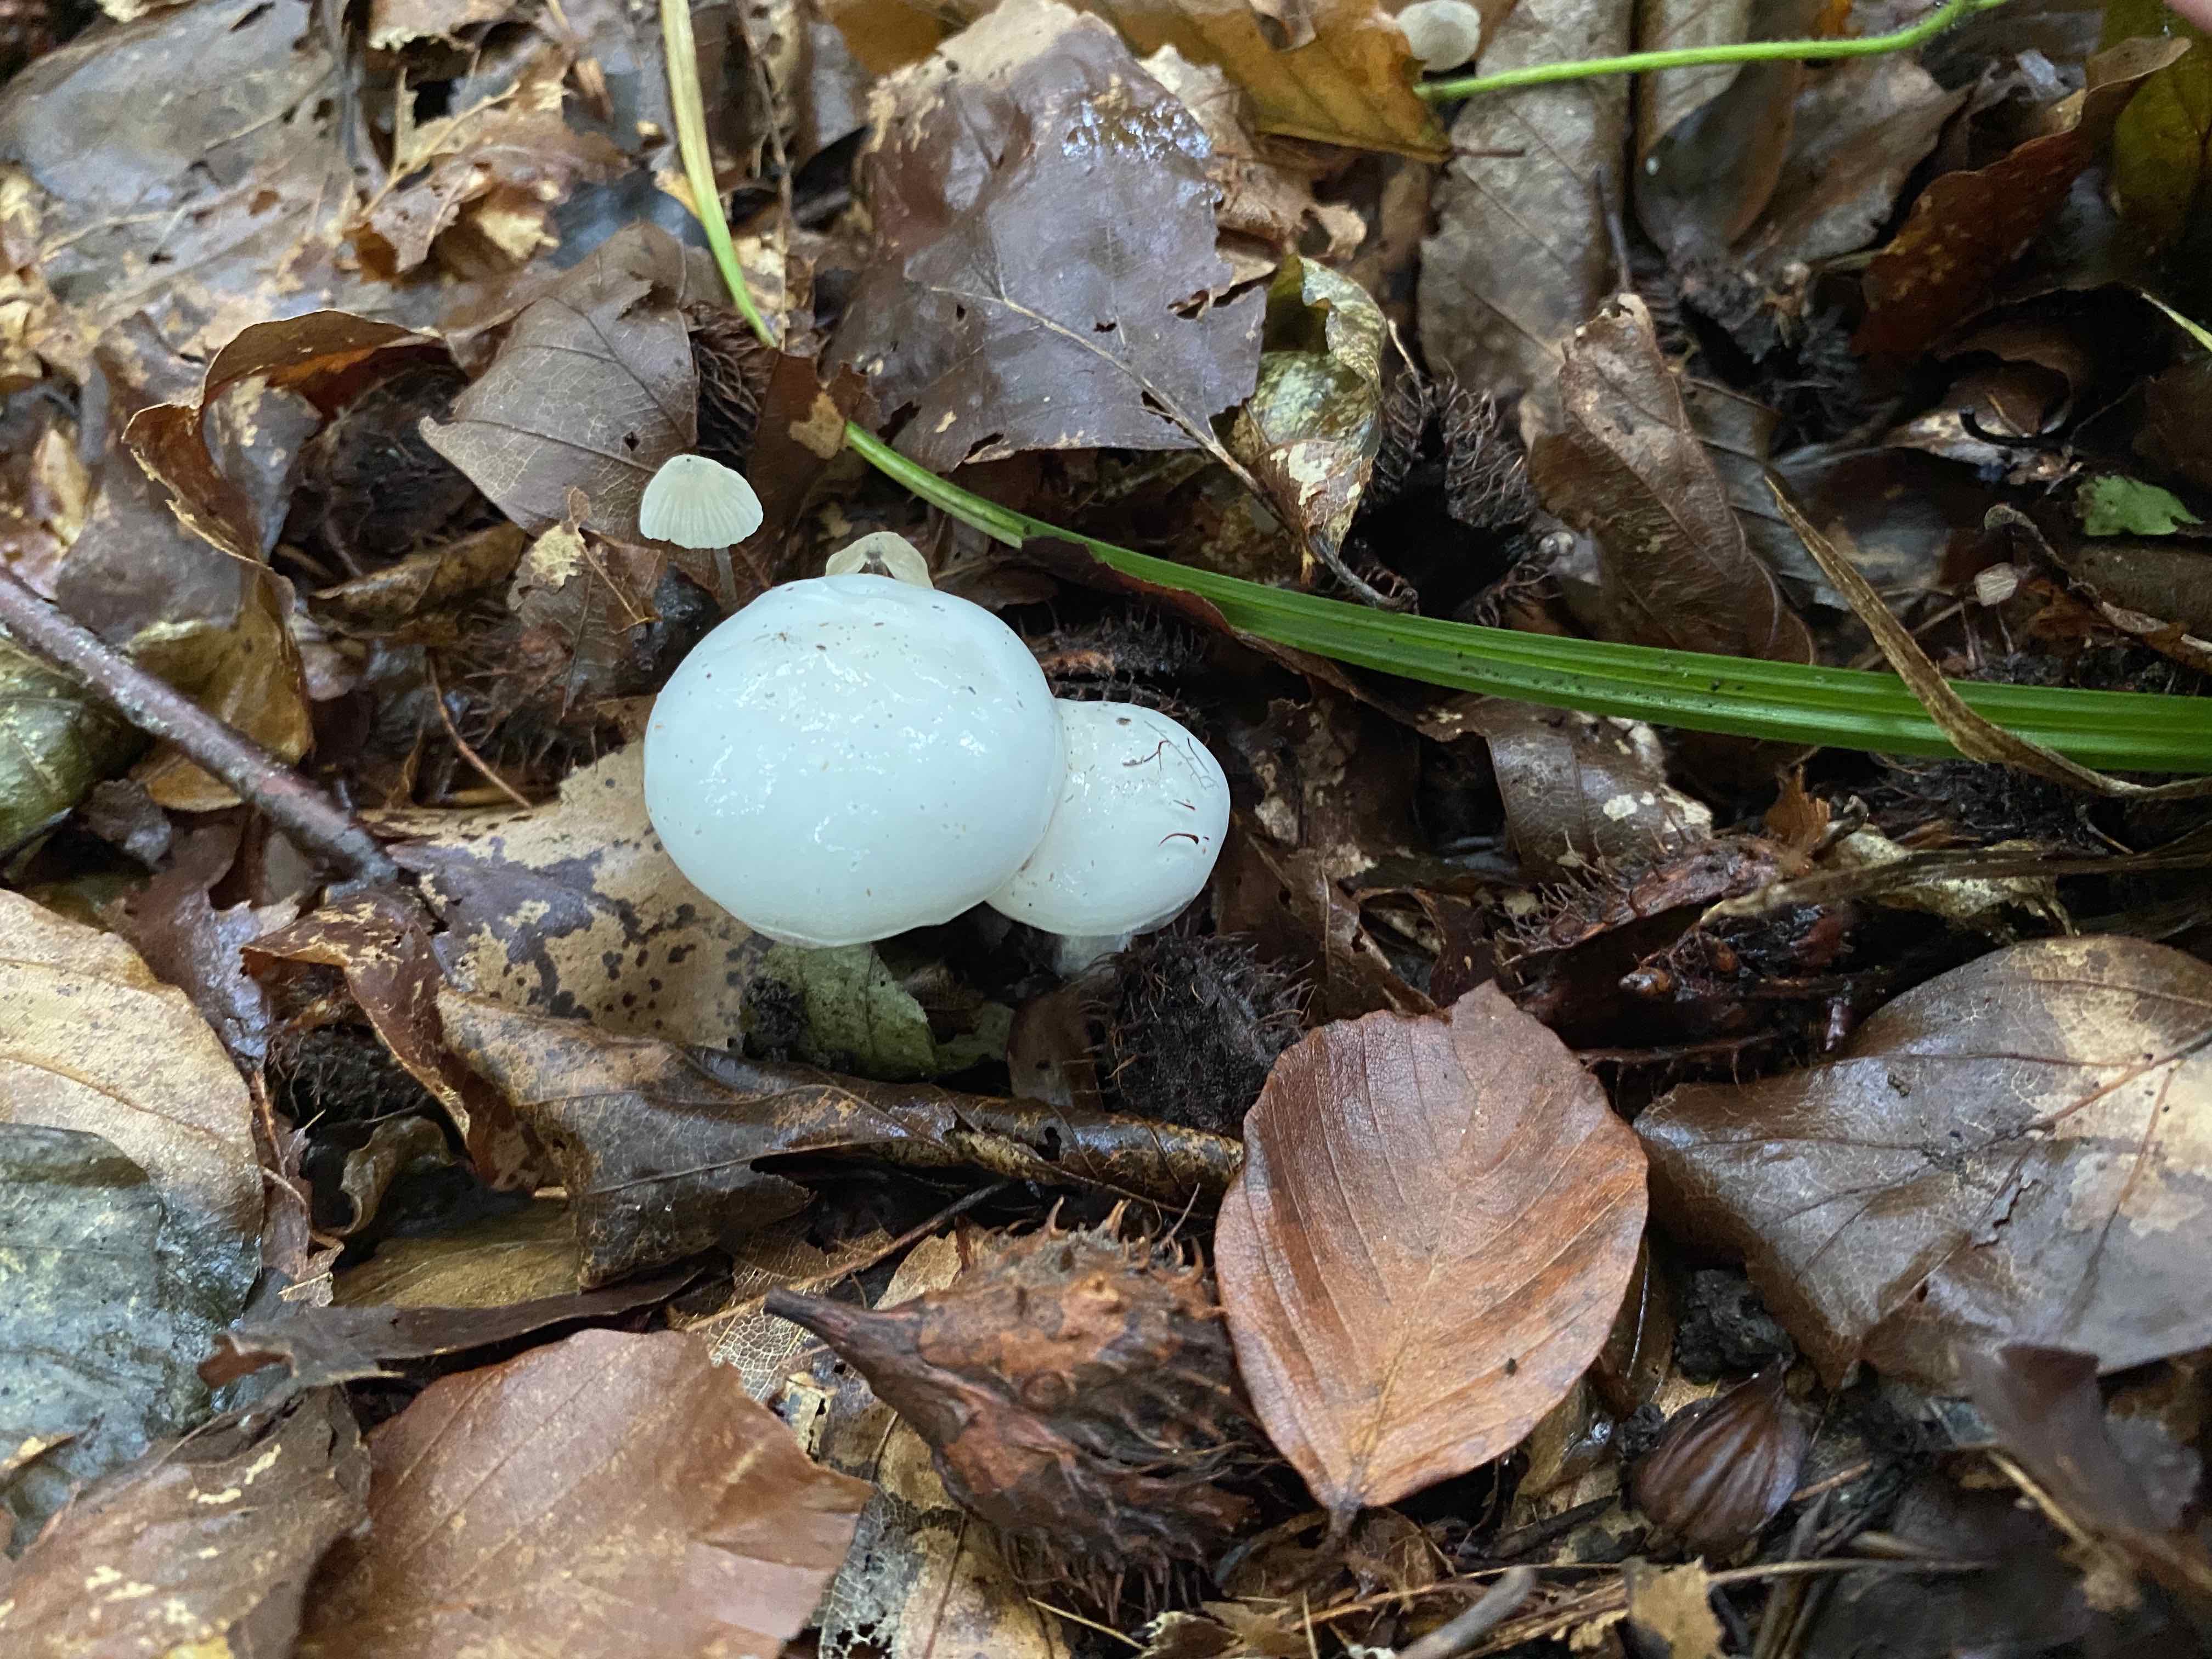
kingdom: Fungi
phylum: Basidiomycota
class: Agaricomycetes
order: Agaricales
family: Physalacriaceae
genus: Mucidula
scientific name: Mucidula mucida
